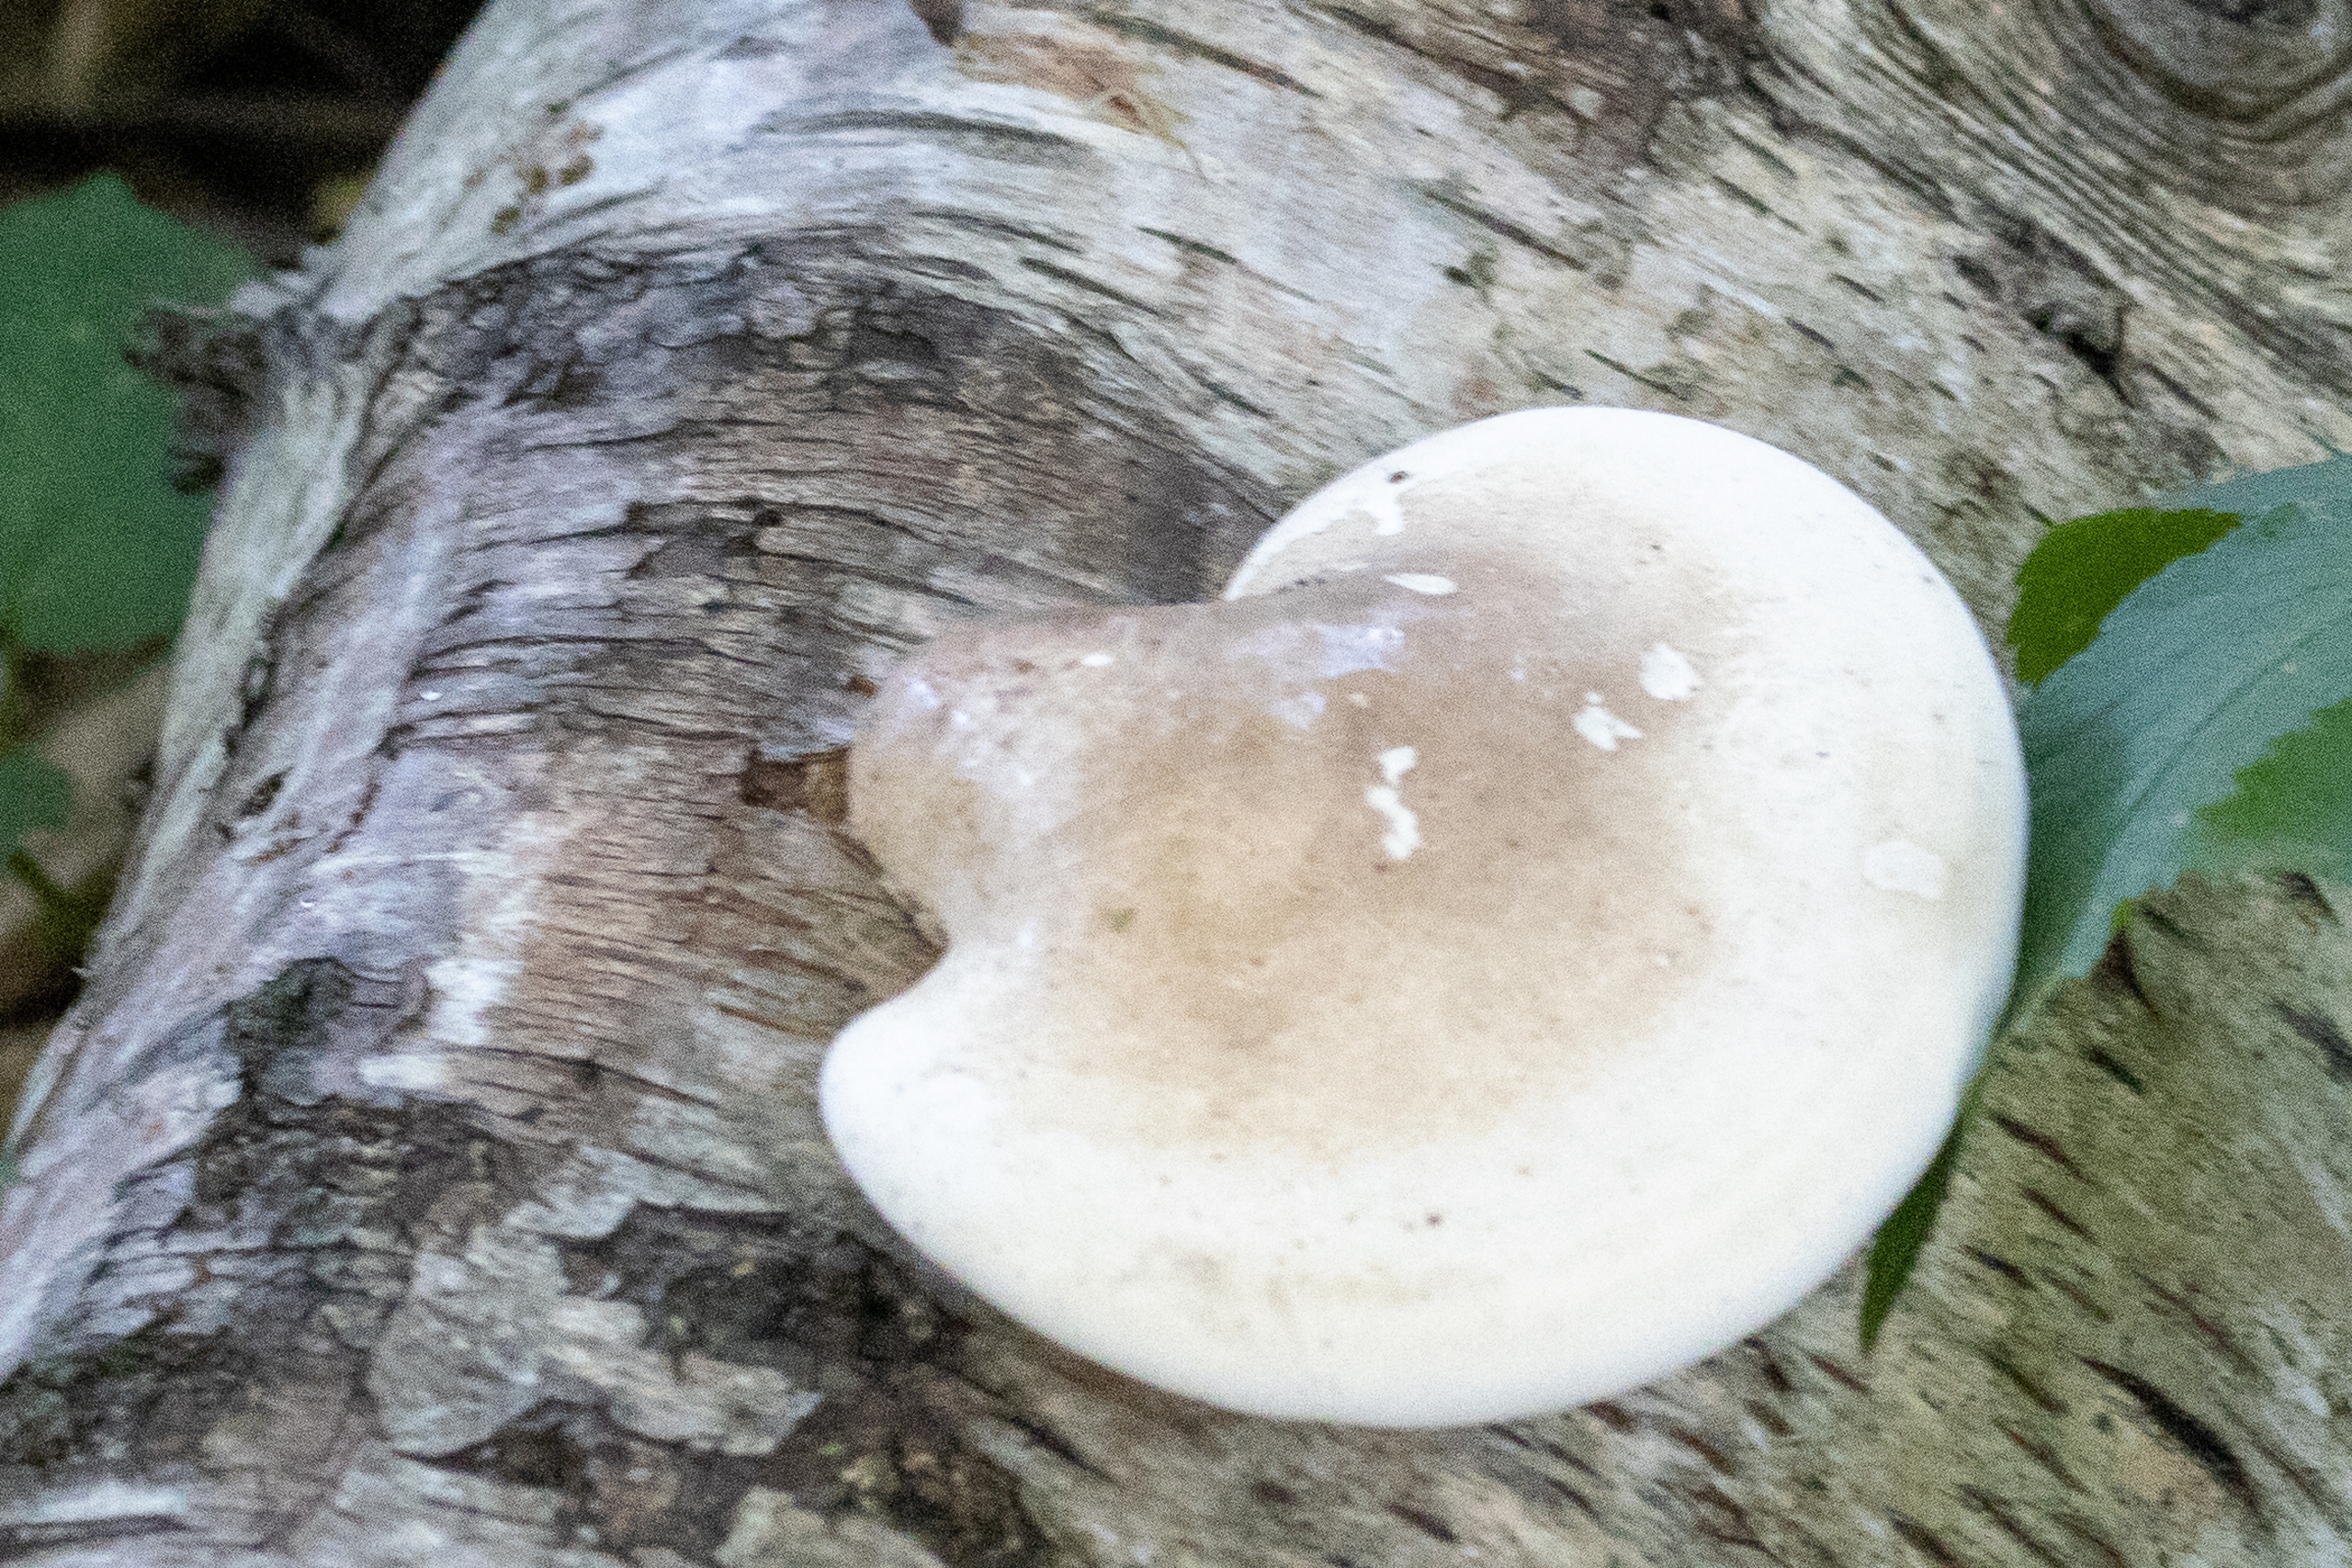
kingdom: Fungi
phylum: Basidiomycota
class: Agaricomycetes
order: Polyporales
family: Fomitopsidaceae
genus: Fomitopsis
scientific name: Fomitopsis betulina
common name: Birkeporesvamp
